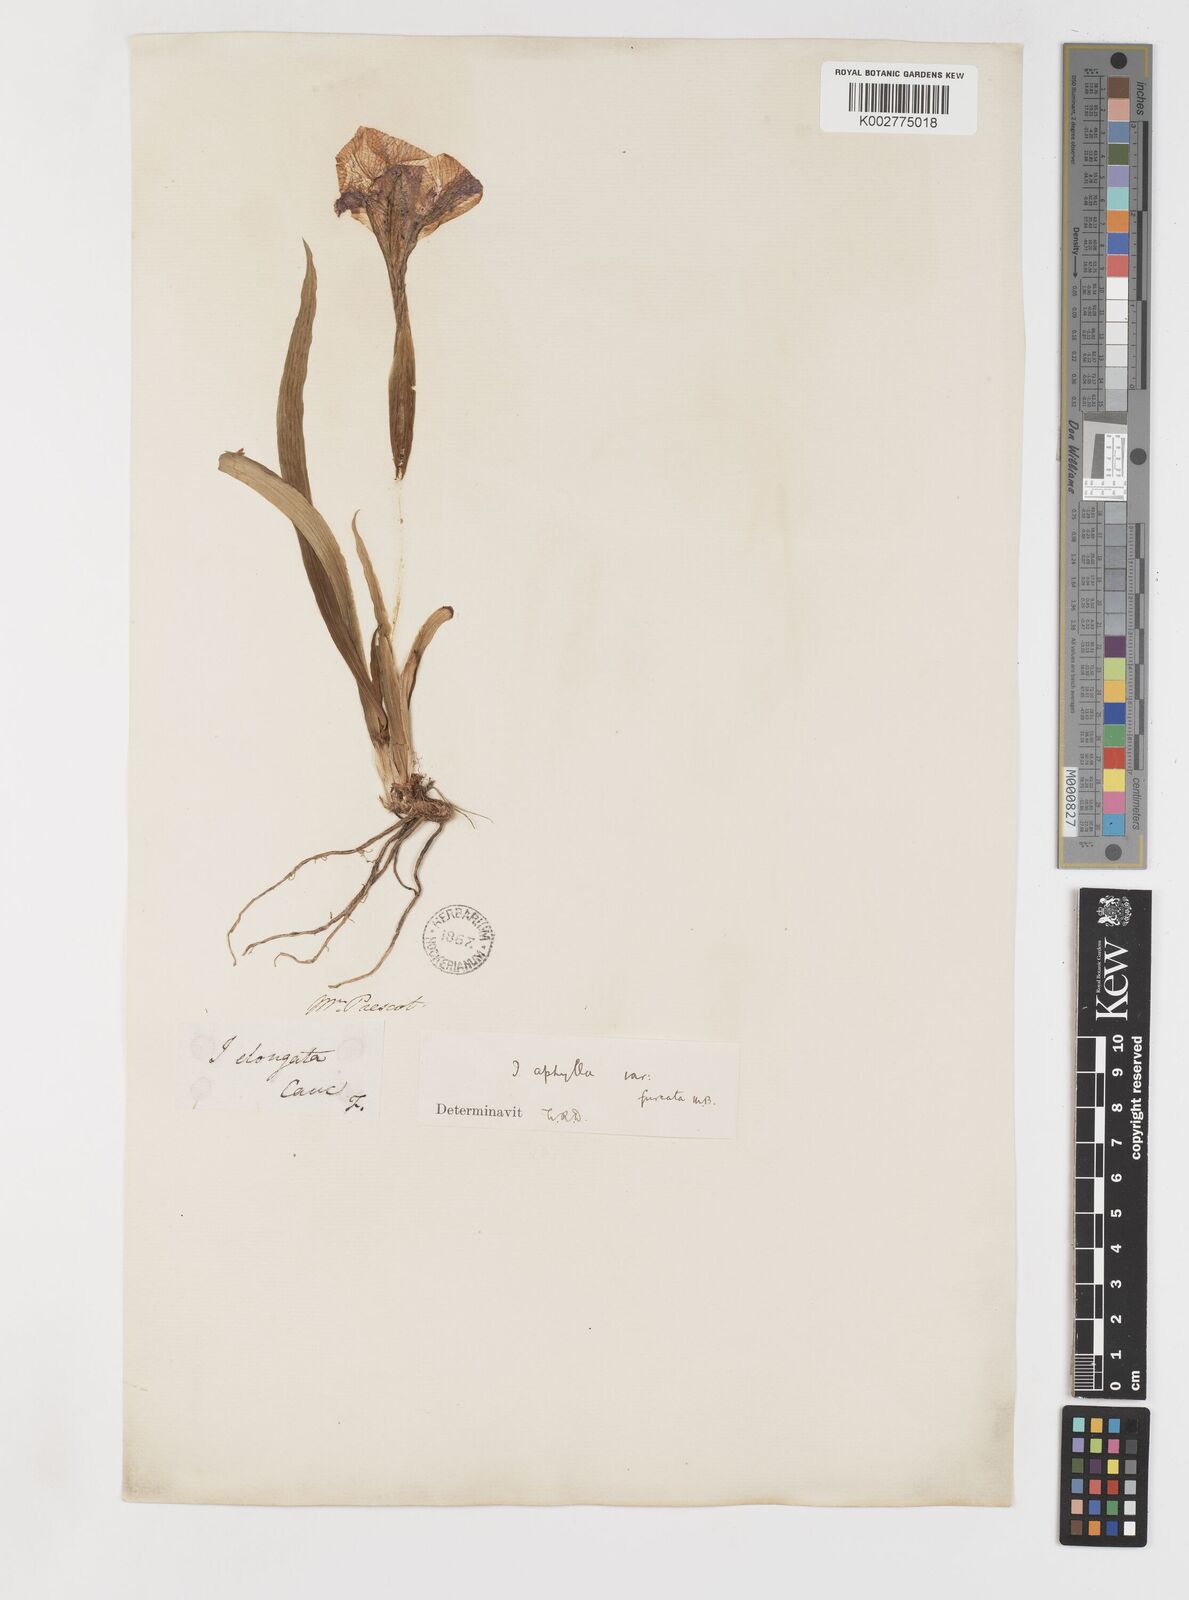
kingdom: Plantae
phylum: Tracheophyta
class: Liliopsida
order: Asparagales
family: Iridaceae
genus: Iris
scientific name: Iris aphylla
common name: Stool iris
